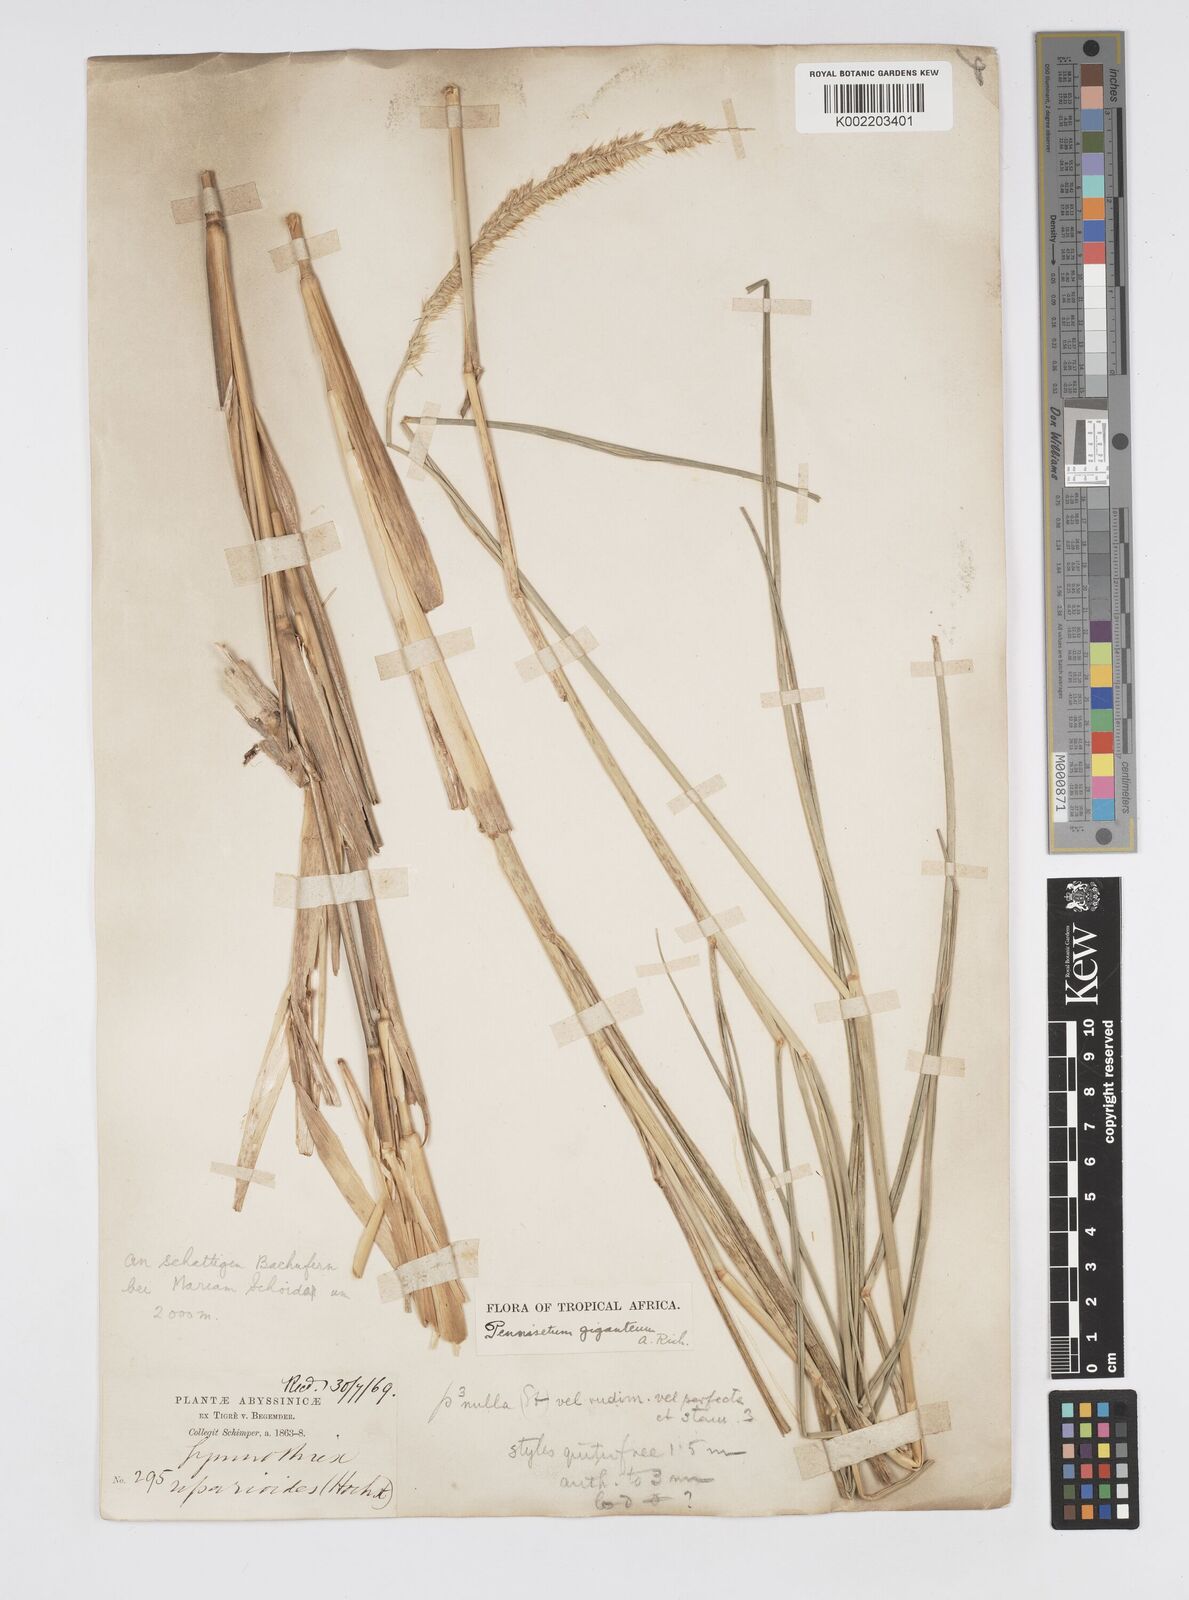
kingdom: Plantae
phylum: Tracheophyta
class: Liliopsida
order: Poales
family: Poaceae
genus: Cenchrus
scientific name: Cenchrus caudatus
